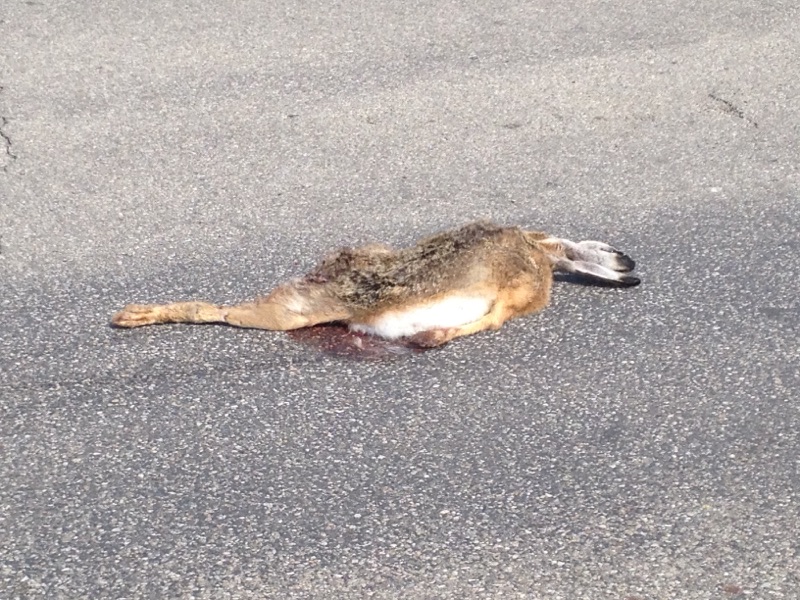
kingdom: Animalia
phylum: Chordata
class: Mammalia
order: Lagomorpha
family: Leporidae
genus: Lepus
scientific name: Lepus europaeus
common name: European hare
